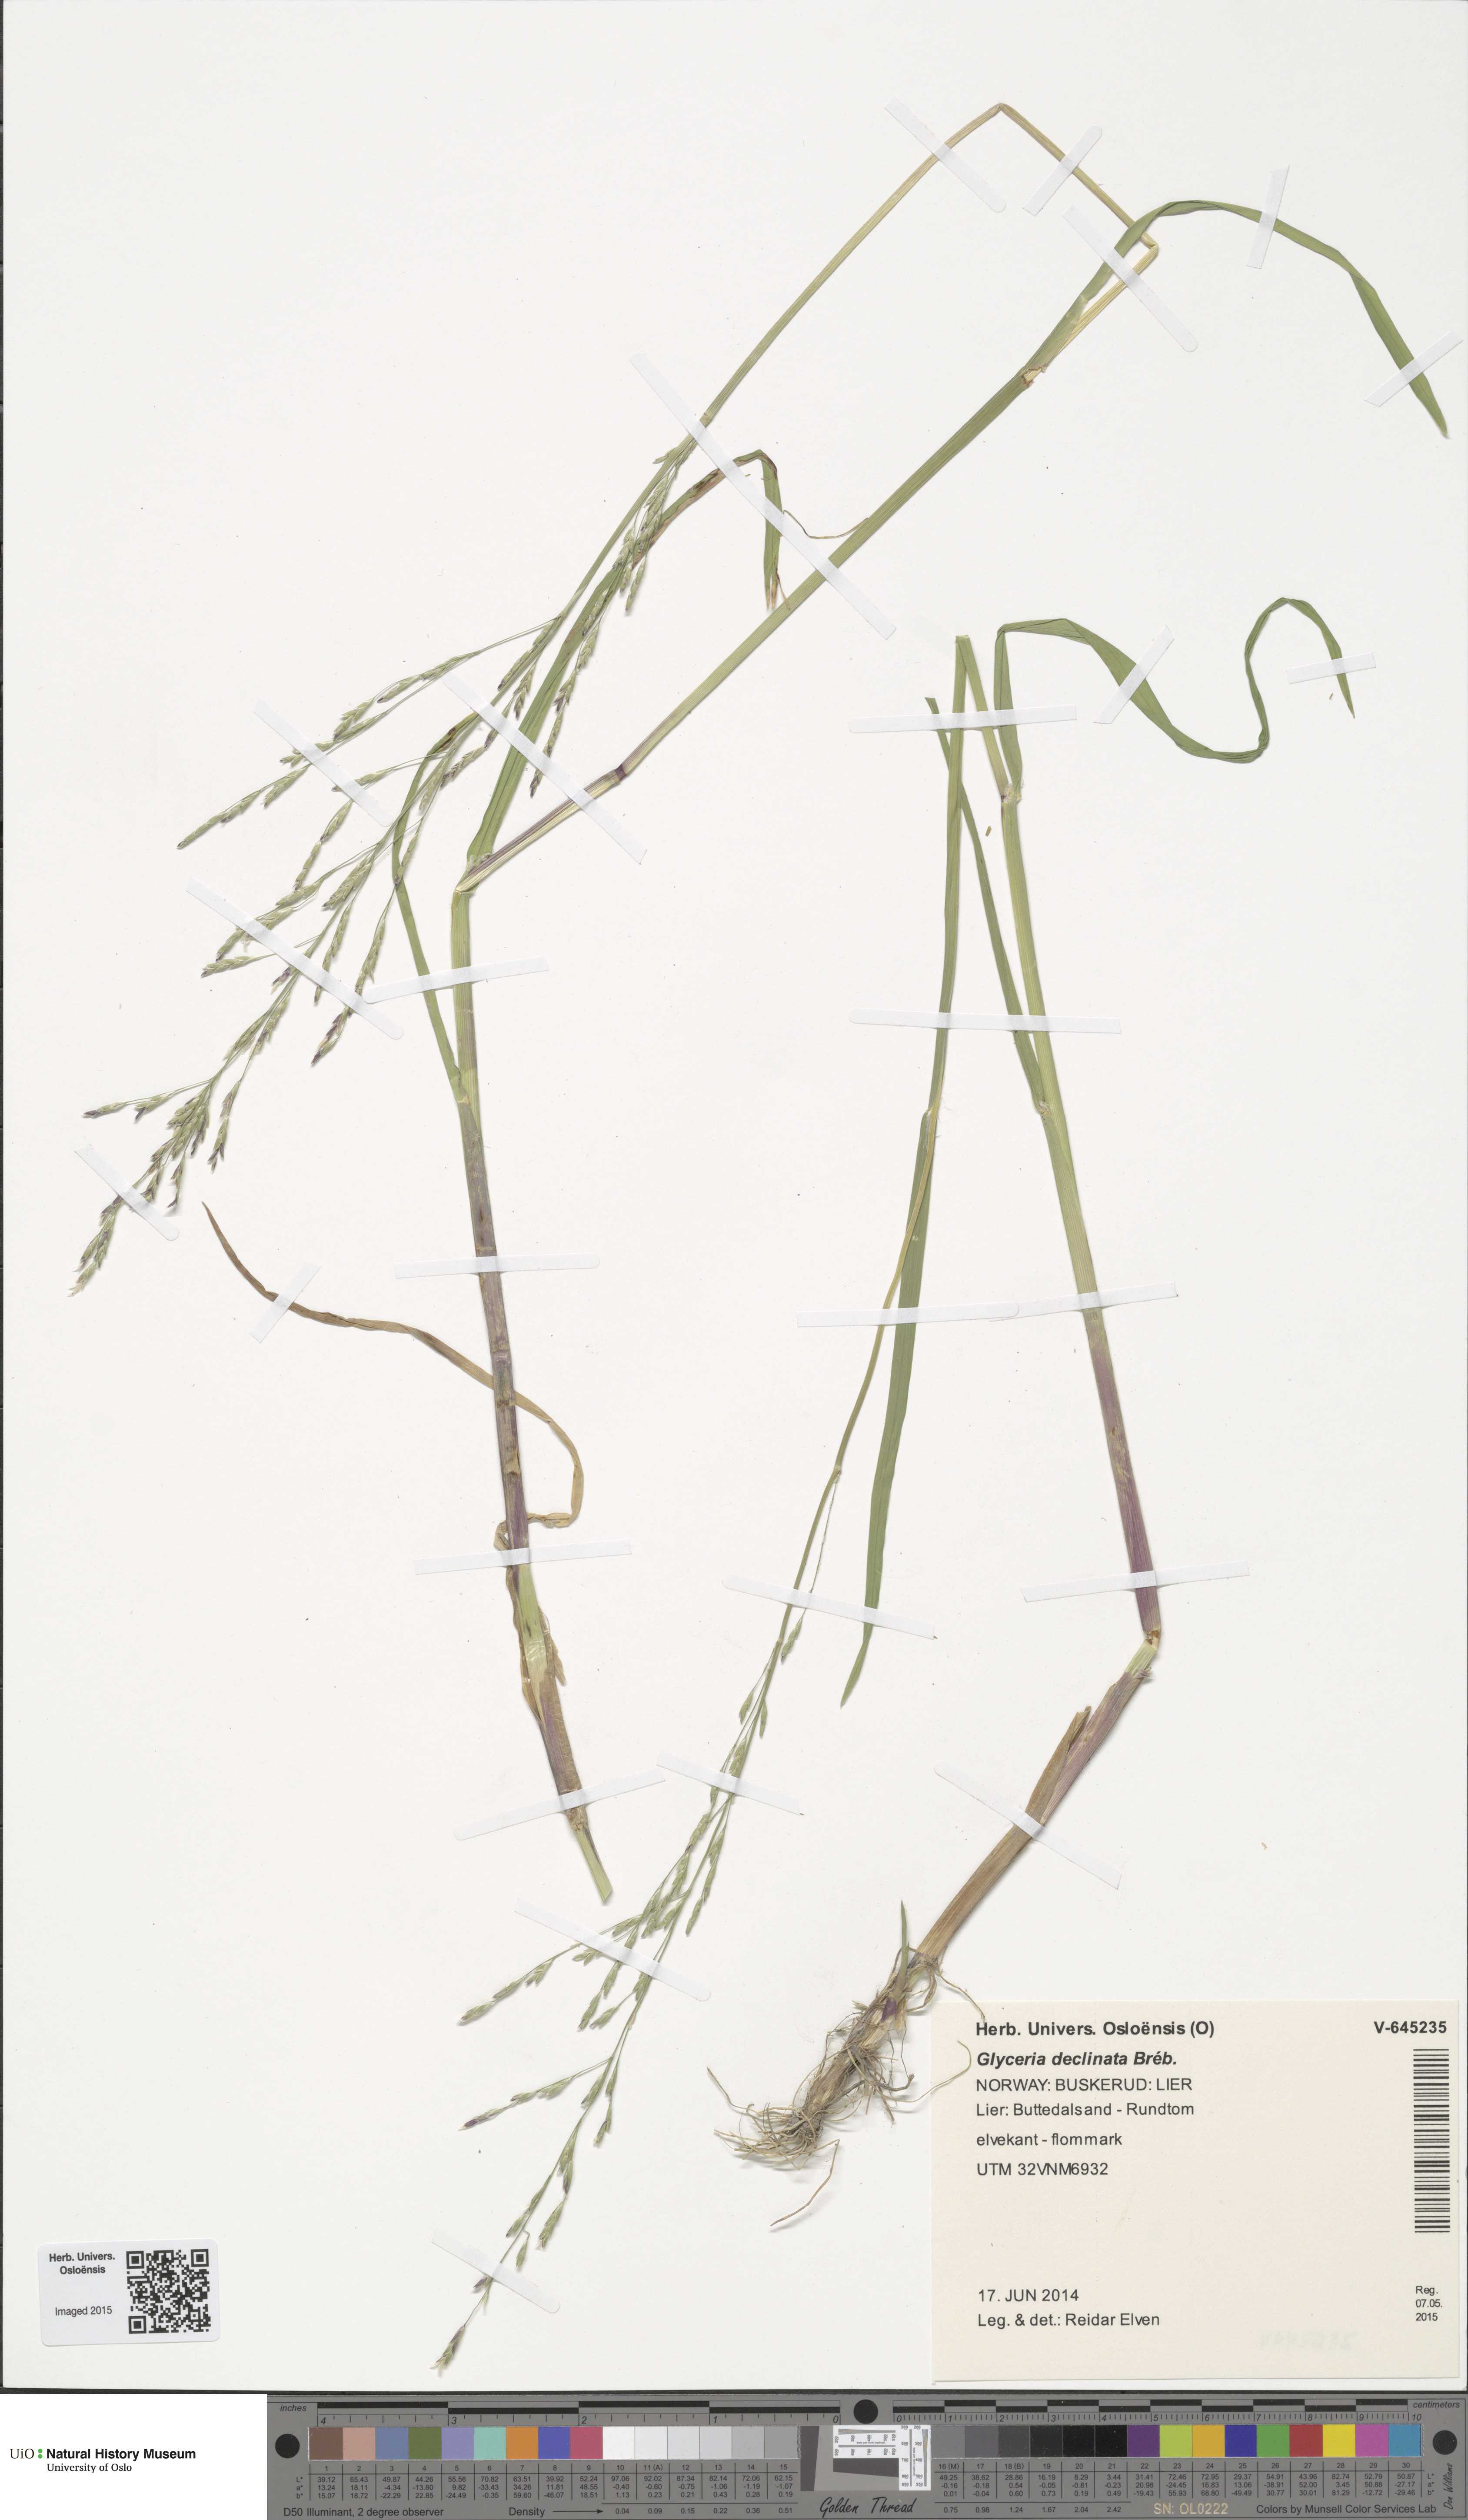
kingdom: Plantae
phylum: Tracheophyta
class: Liliopsida
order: Poales
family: Poaceae
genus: Glyceria
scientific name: Glyceria declinata
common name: Small sweet-grass
